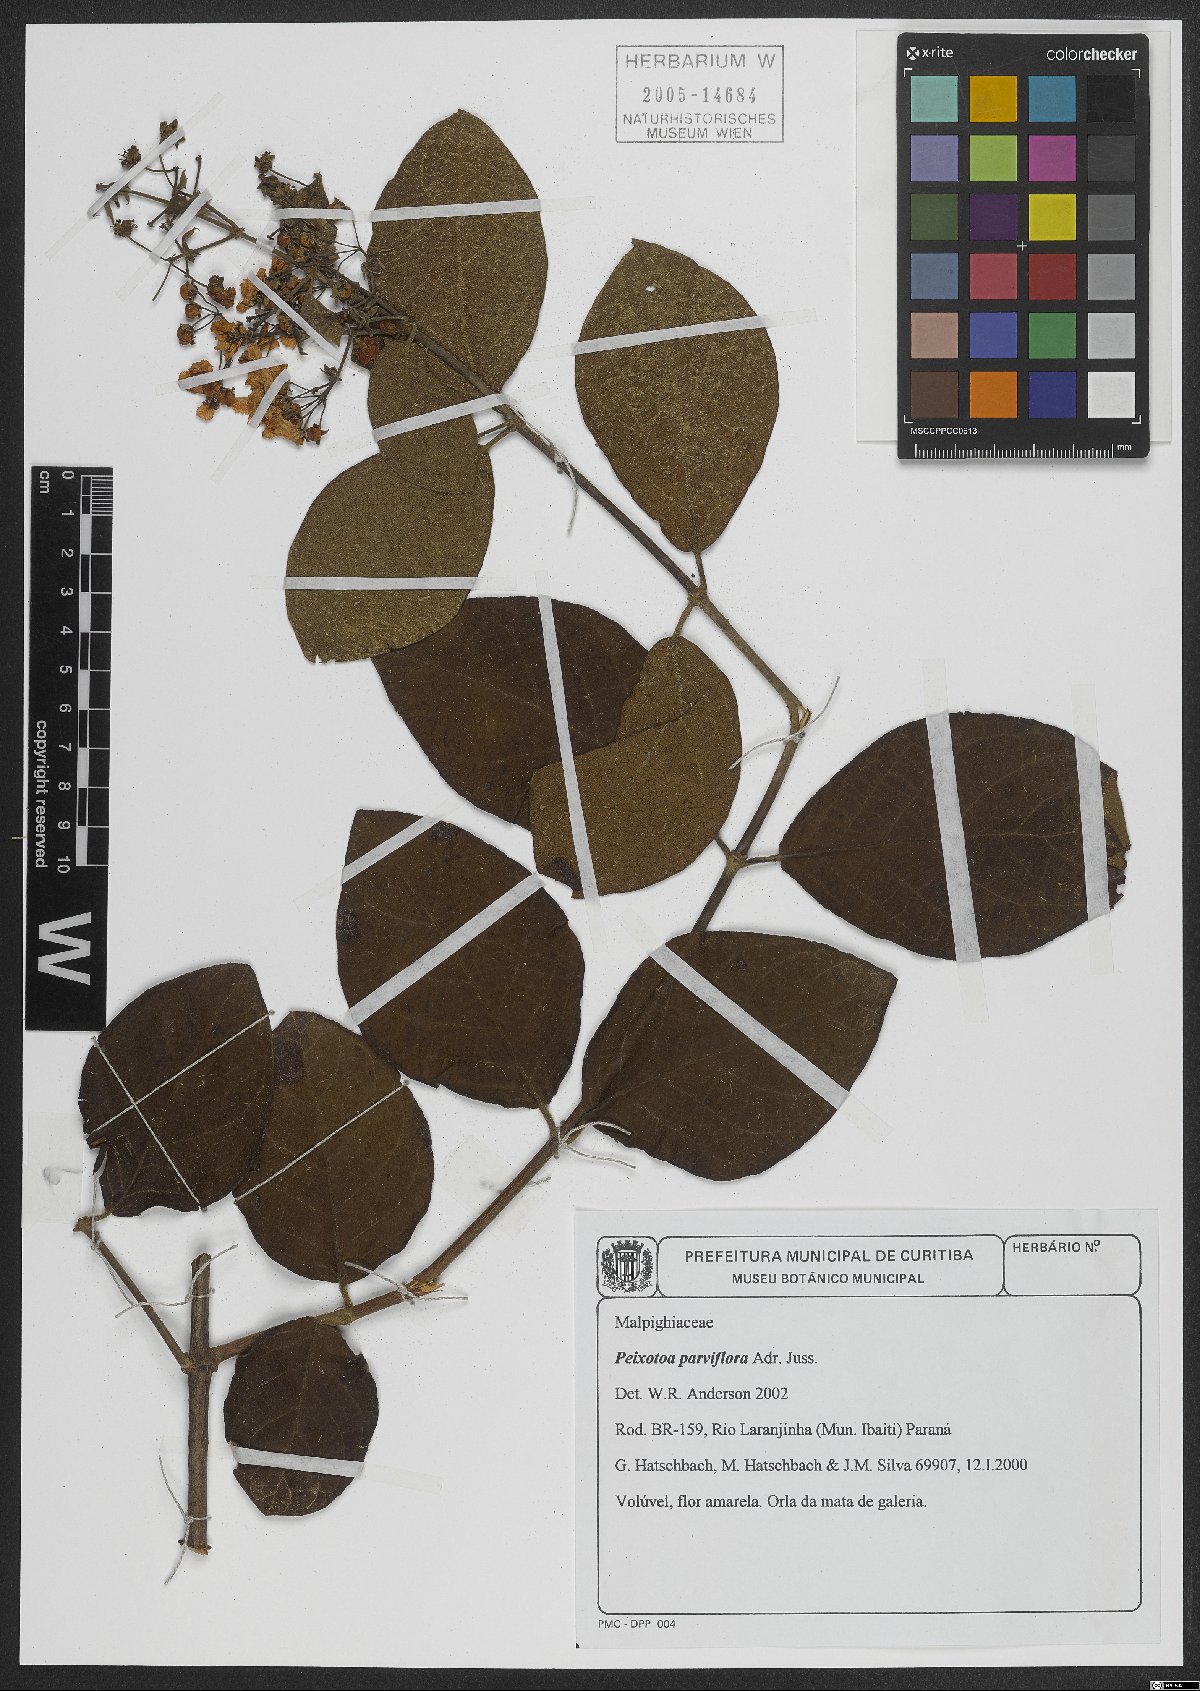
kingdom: Plantae
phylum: Tracheophyta
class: Magnoliopsida
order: Malpighiales
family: Malpighiaceae
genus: Peixotoa
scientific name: Peixotoa parviflora
